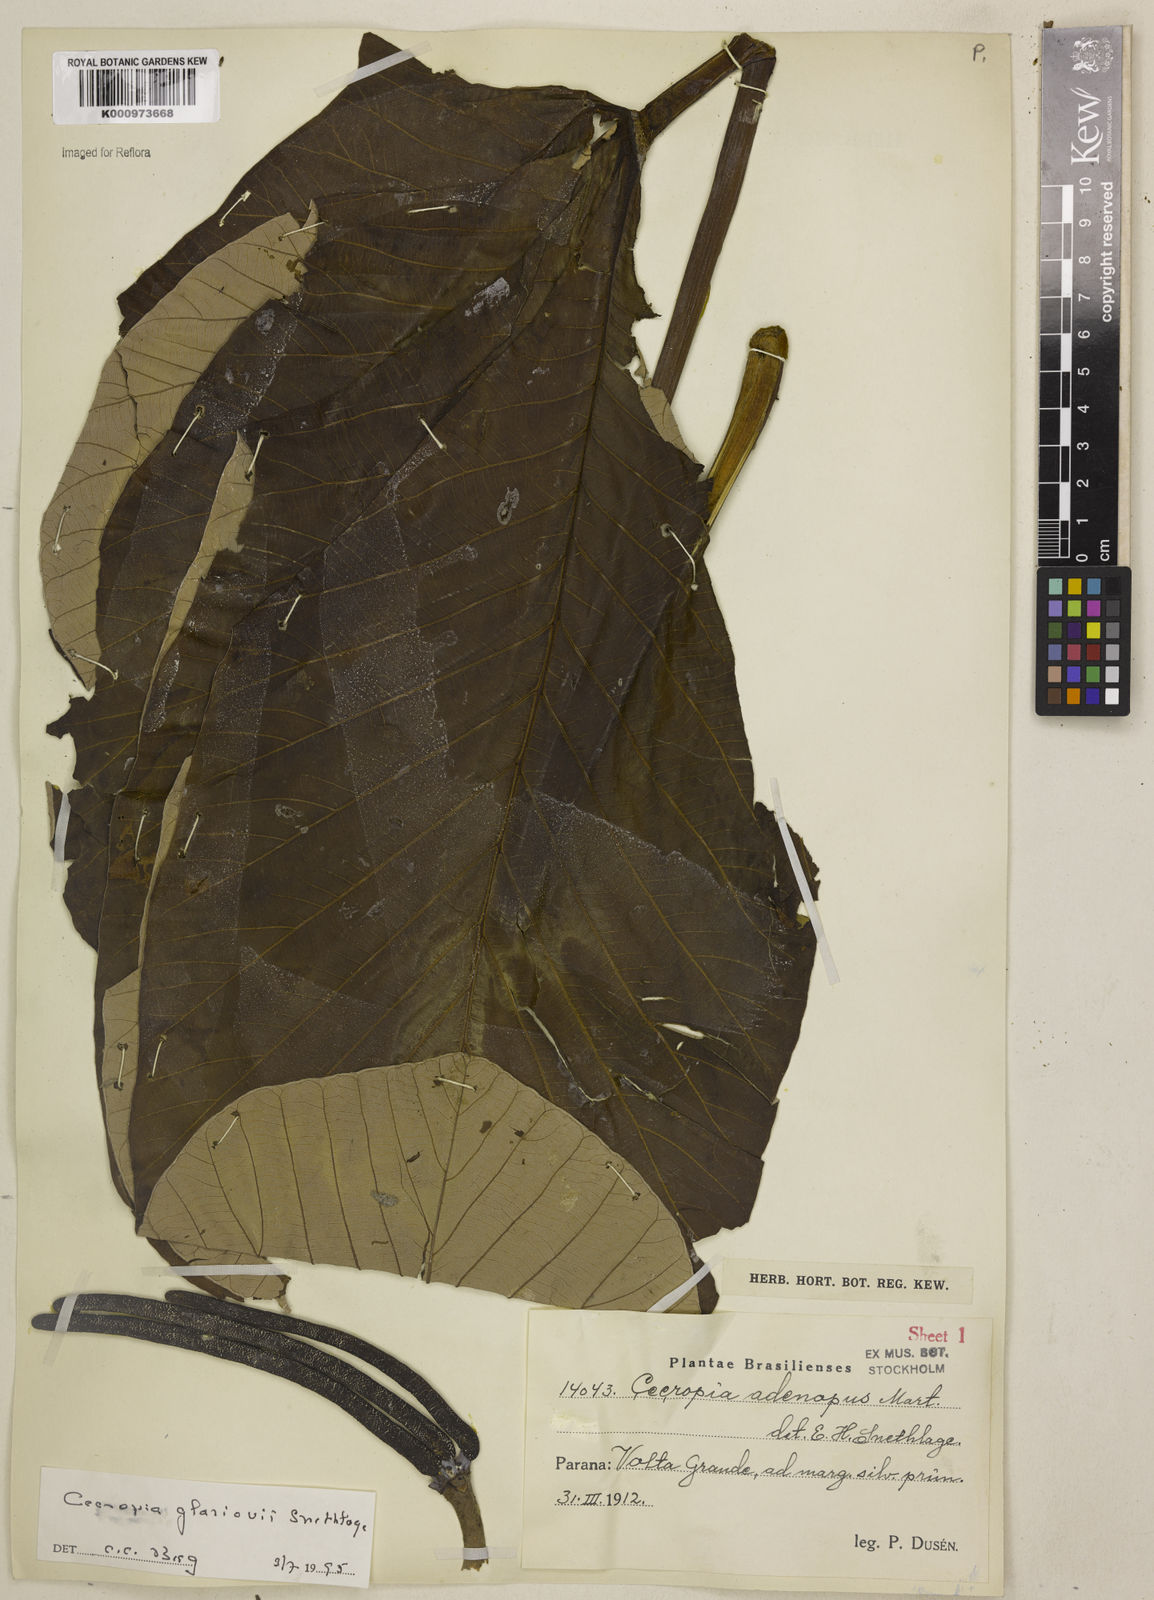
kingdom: Plantae
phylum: Tracheophyta
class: Magnoliopsida
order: Rosales
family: Urticaceae
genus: Cecropia
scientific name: Cecropia glaziovii
